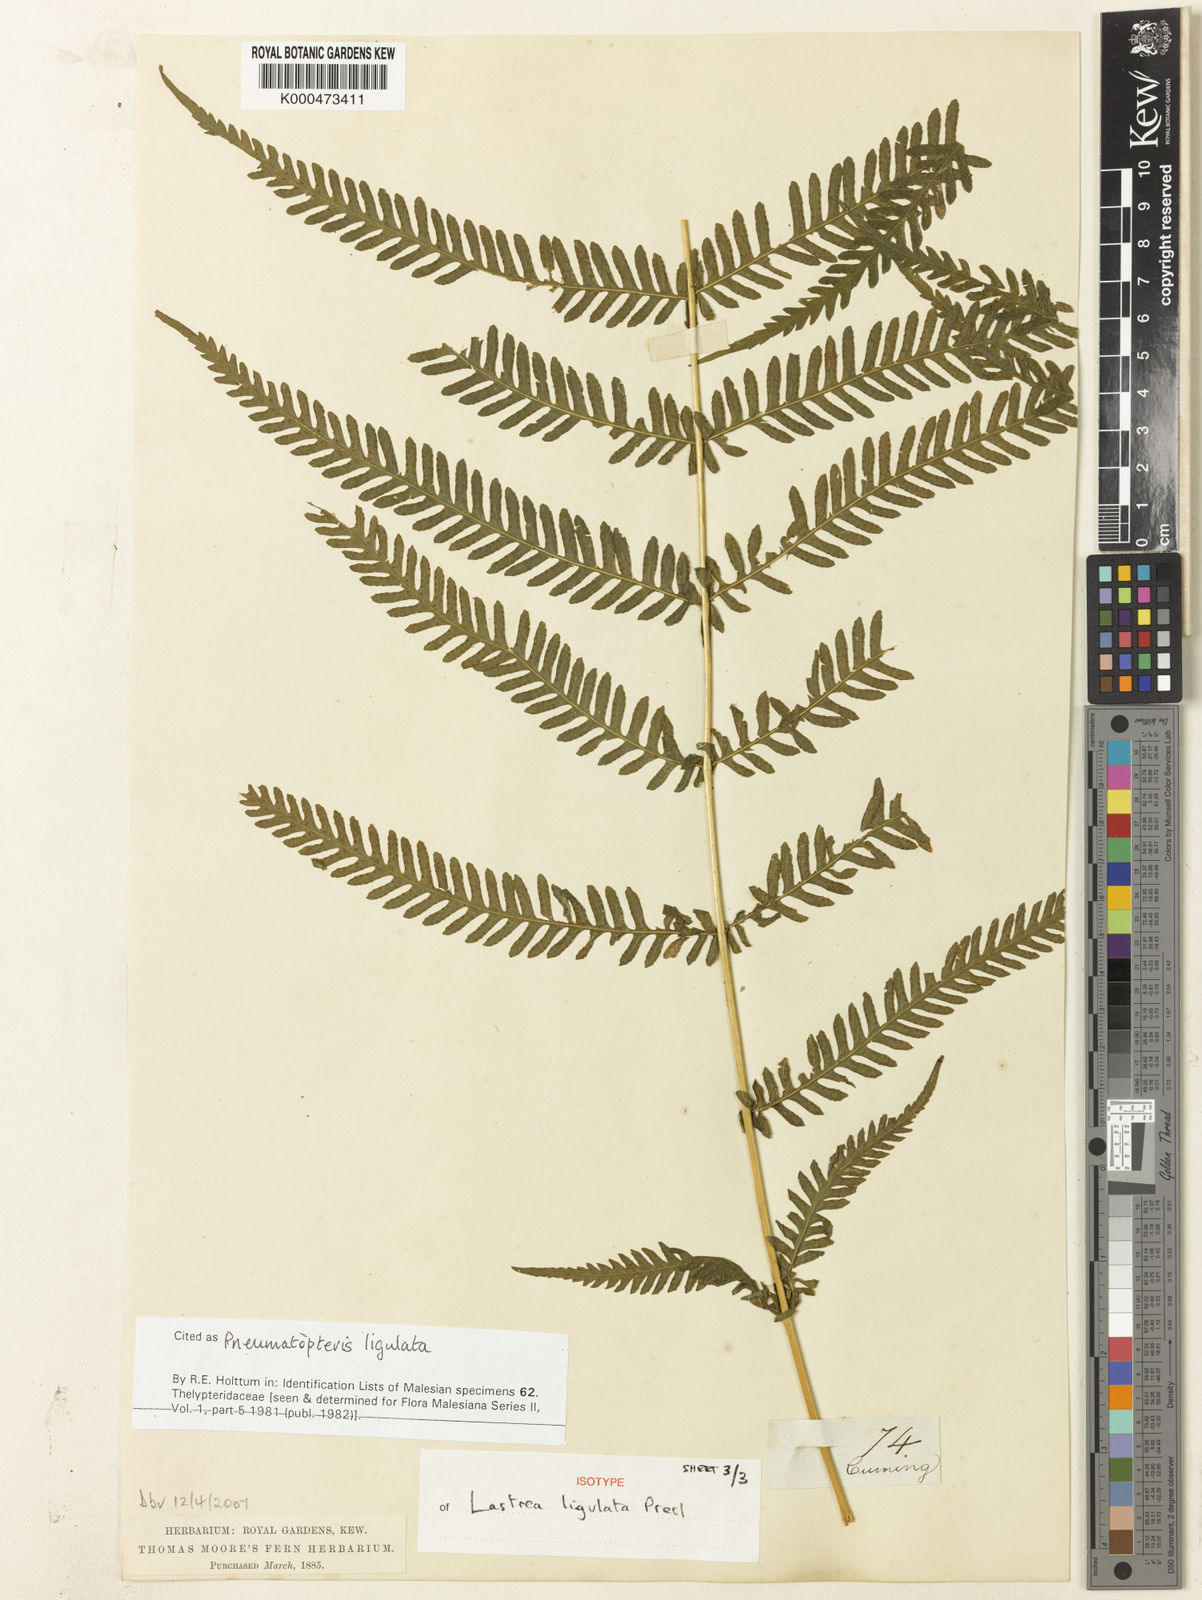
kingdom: Plantae
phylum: Tracheophyta
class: Polypodiopsida
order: Polypodiales
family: Thelypteridaceae
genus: Plesioneuron
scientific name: Plesioneuron ligulatum
